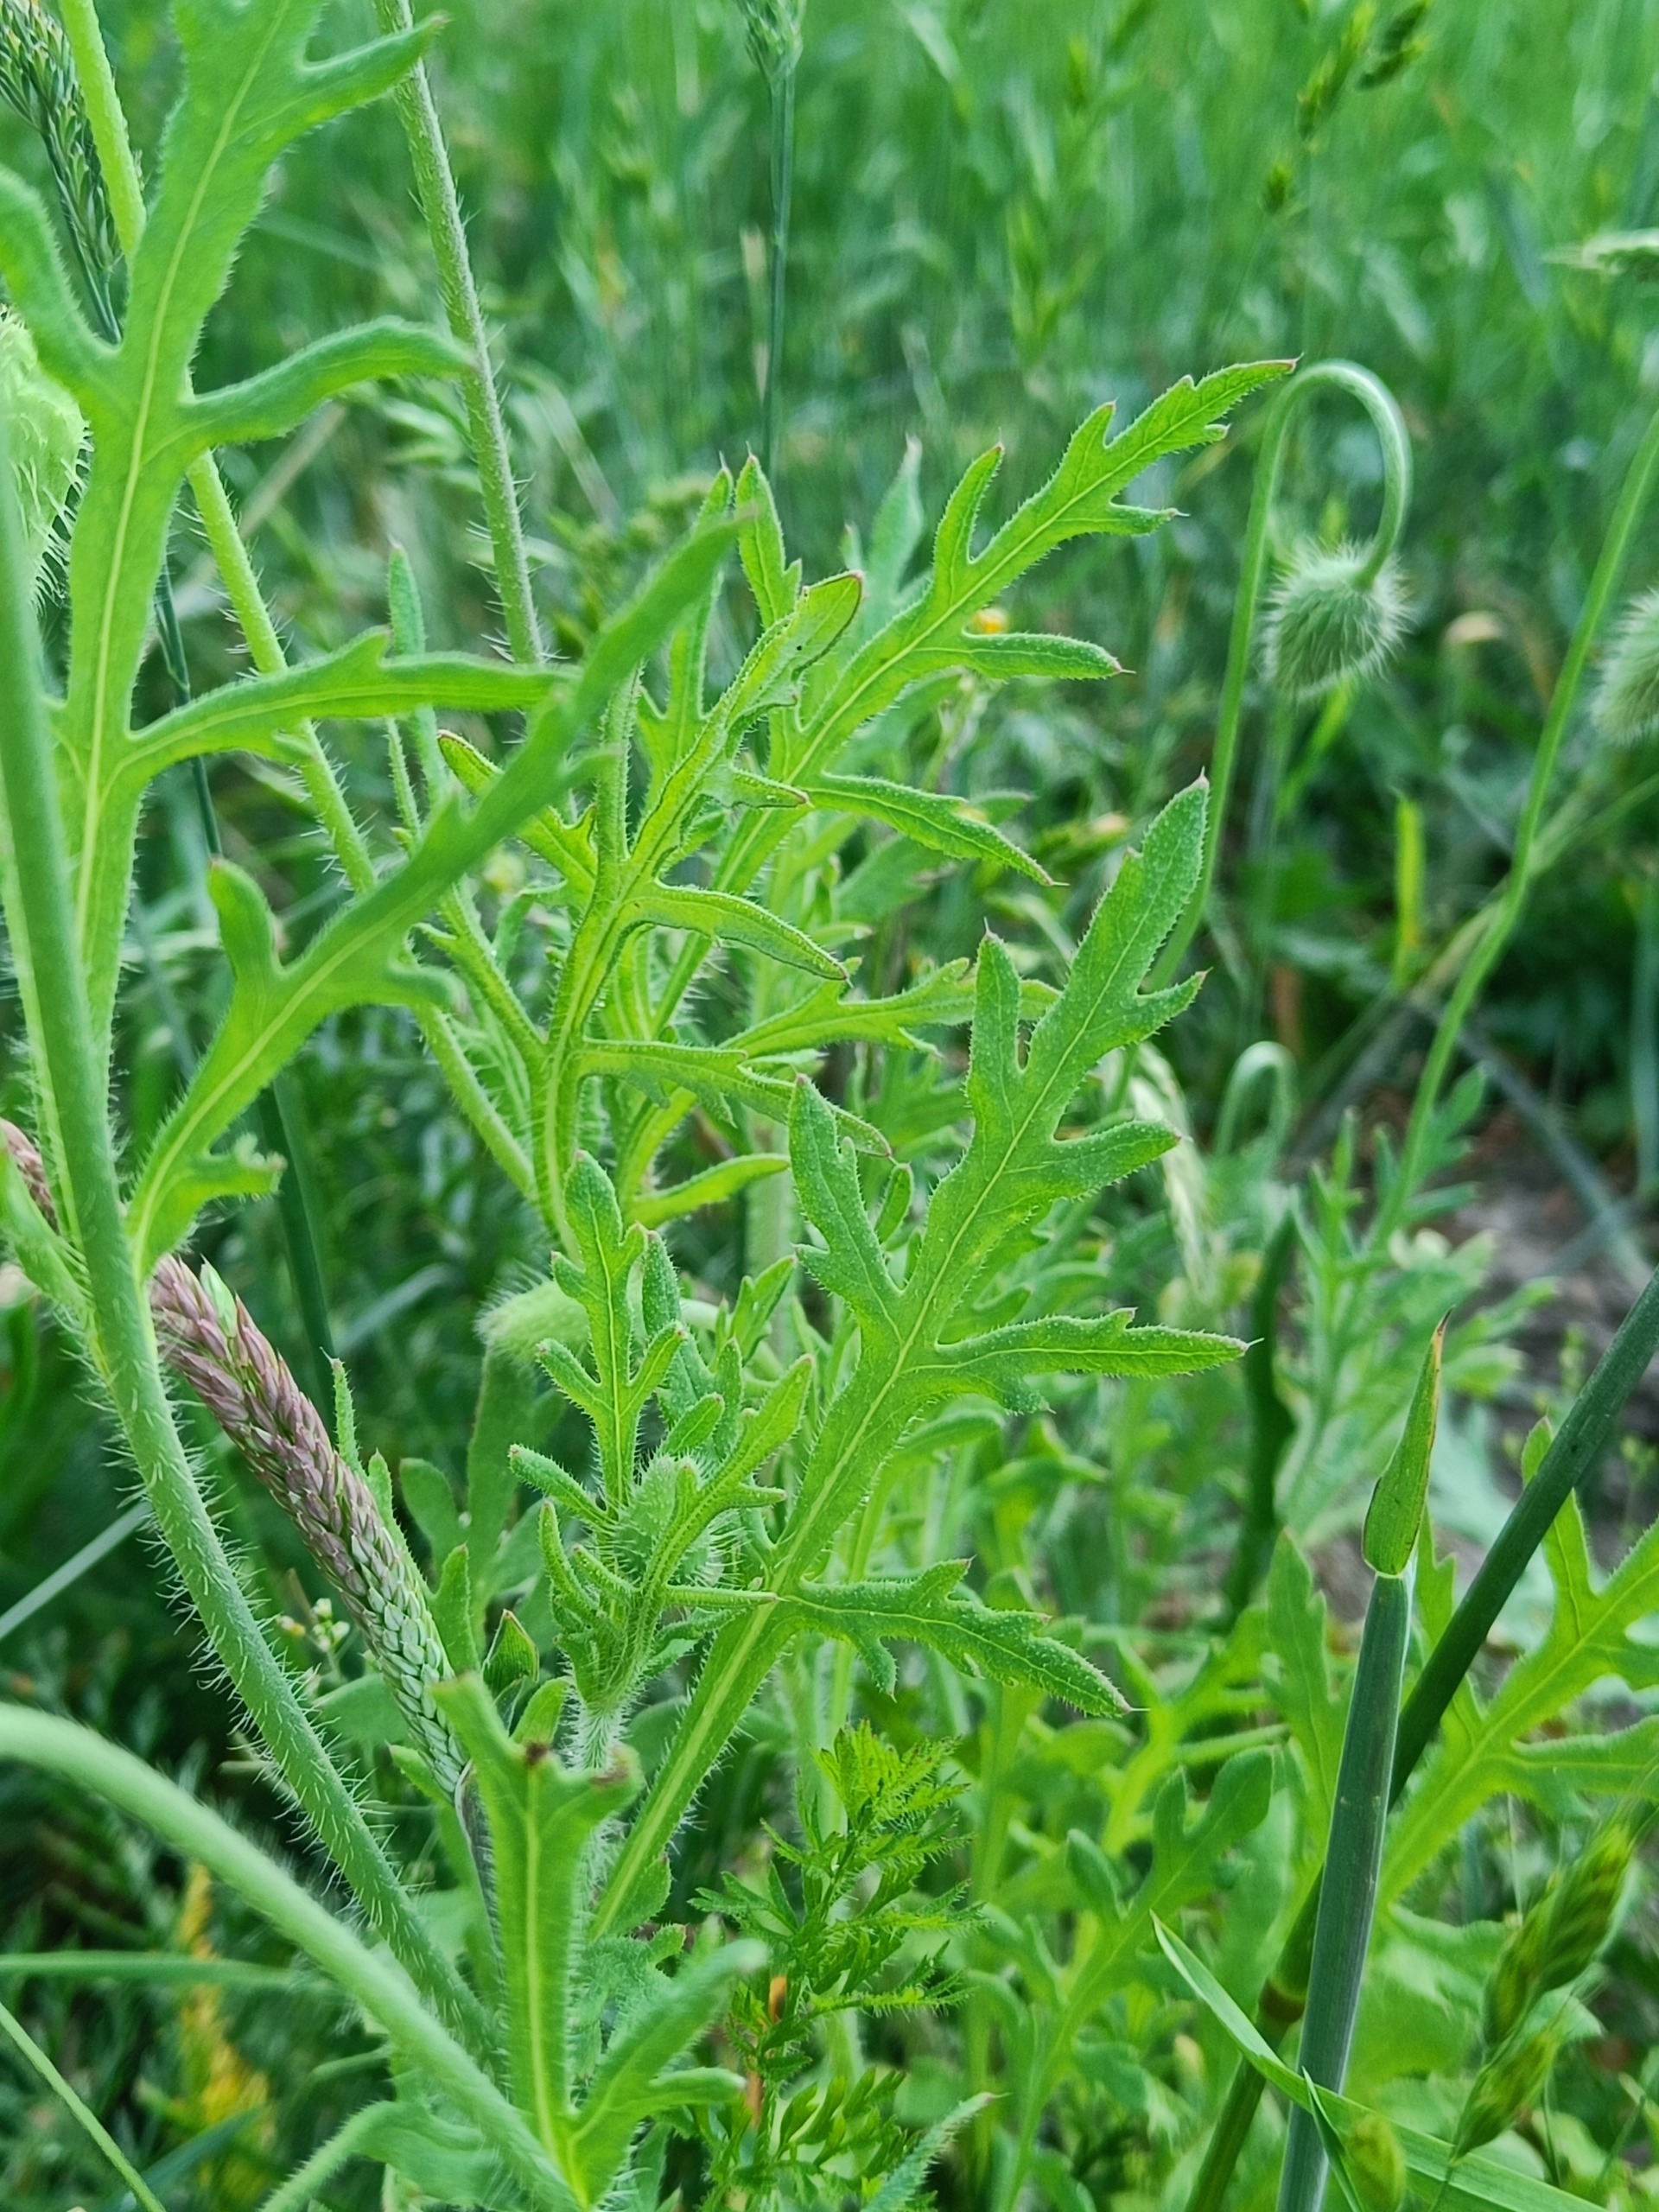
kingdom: Plantae
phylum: Tracheophyta
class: Magnoliopsida
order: Ranunculales
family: Papaveraceae
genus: Papaver
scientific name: Papaver dubium
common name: Gærde-valmue
